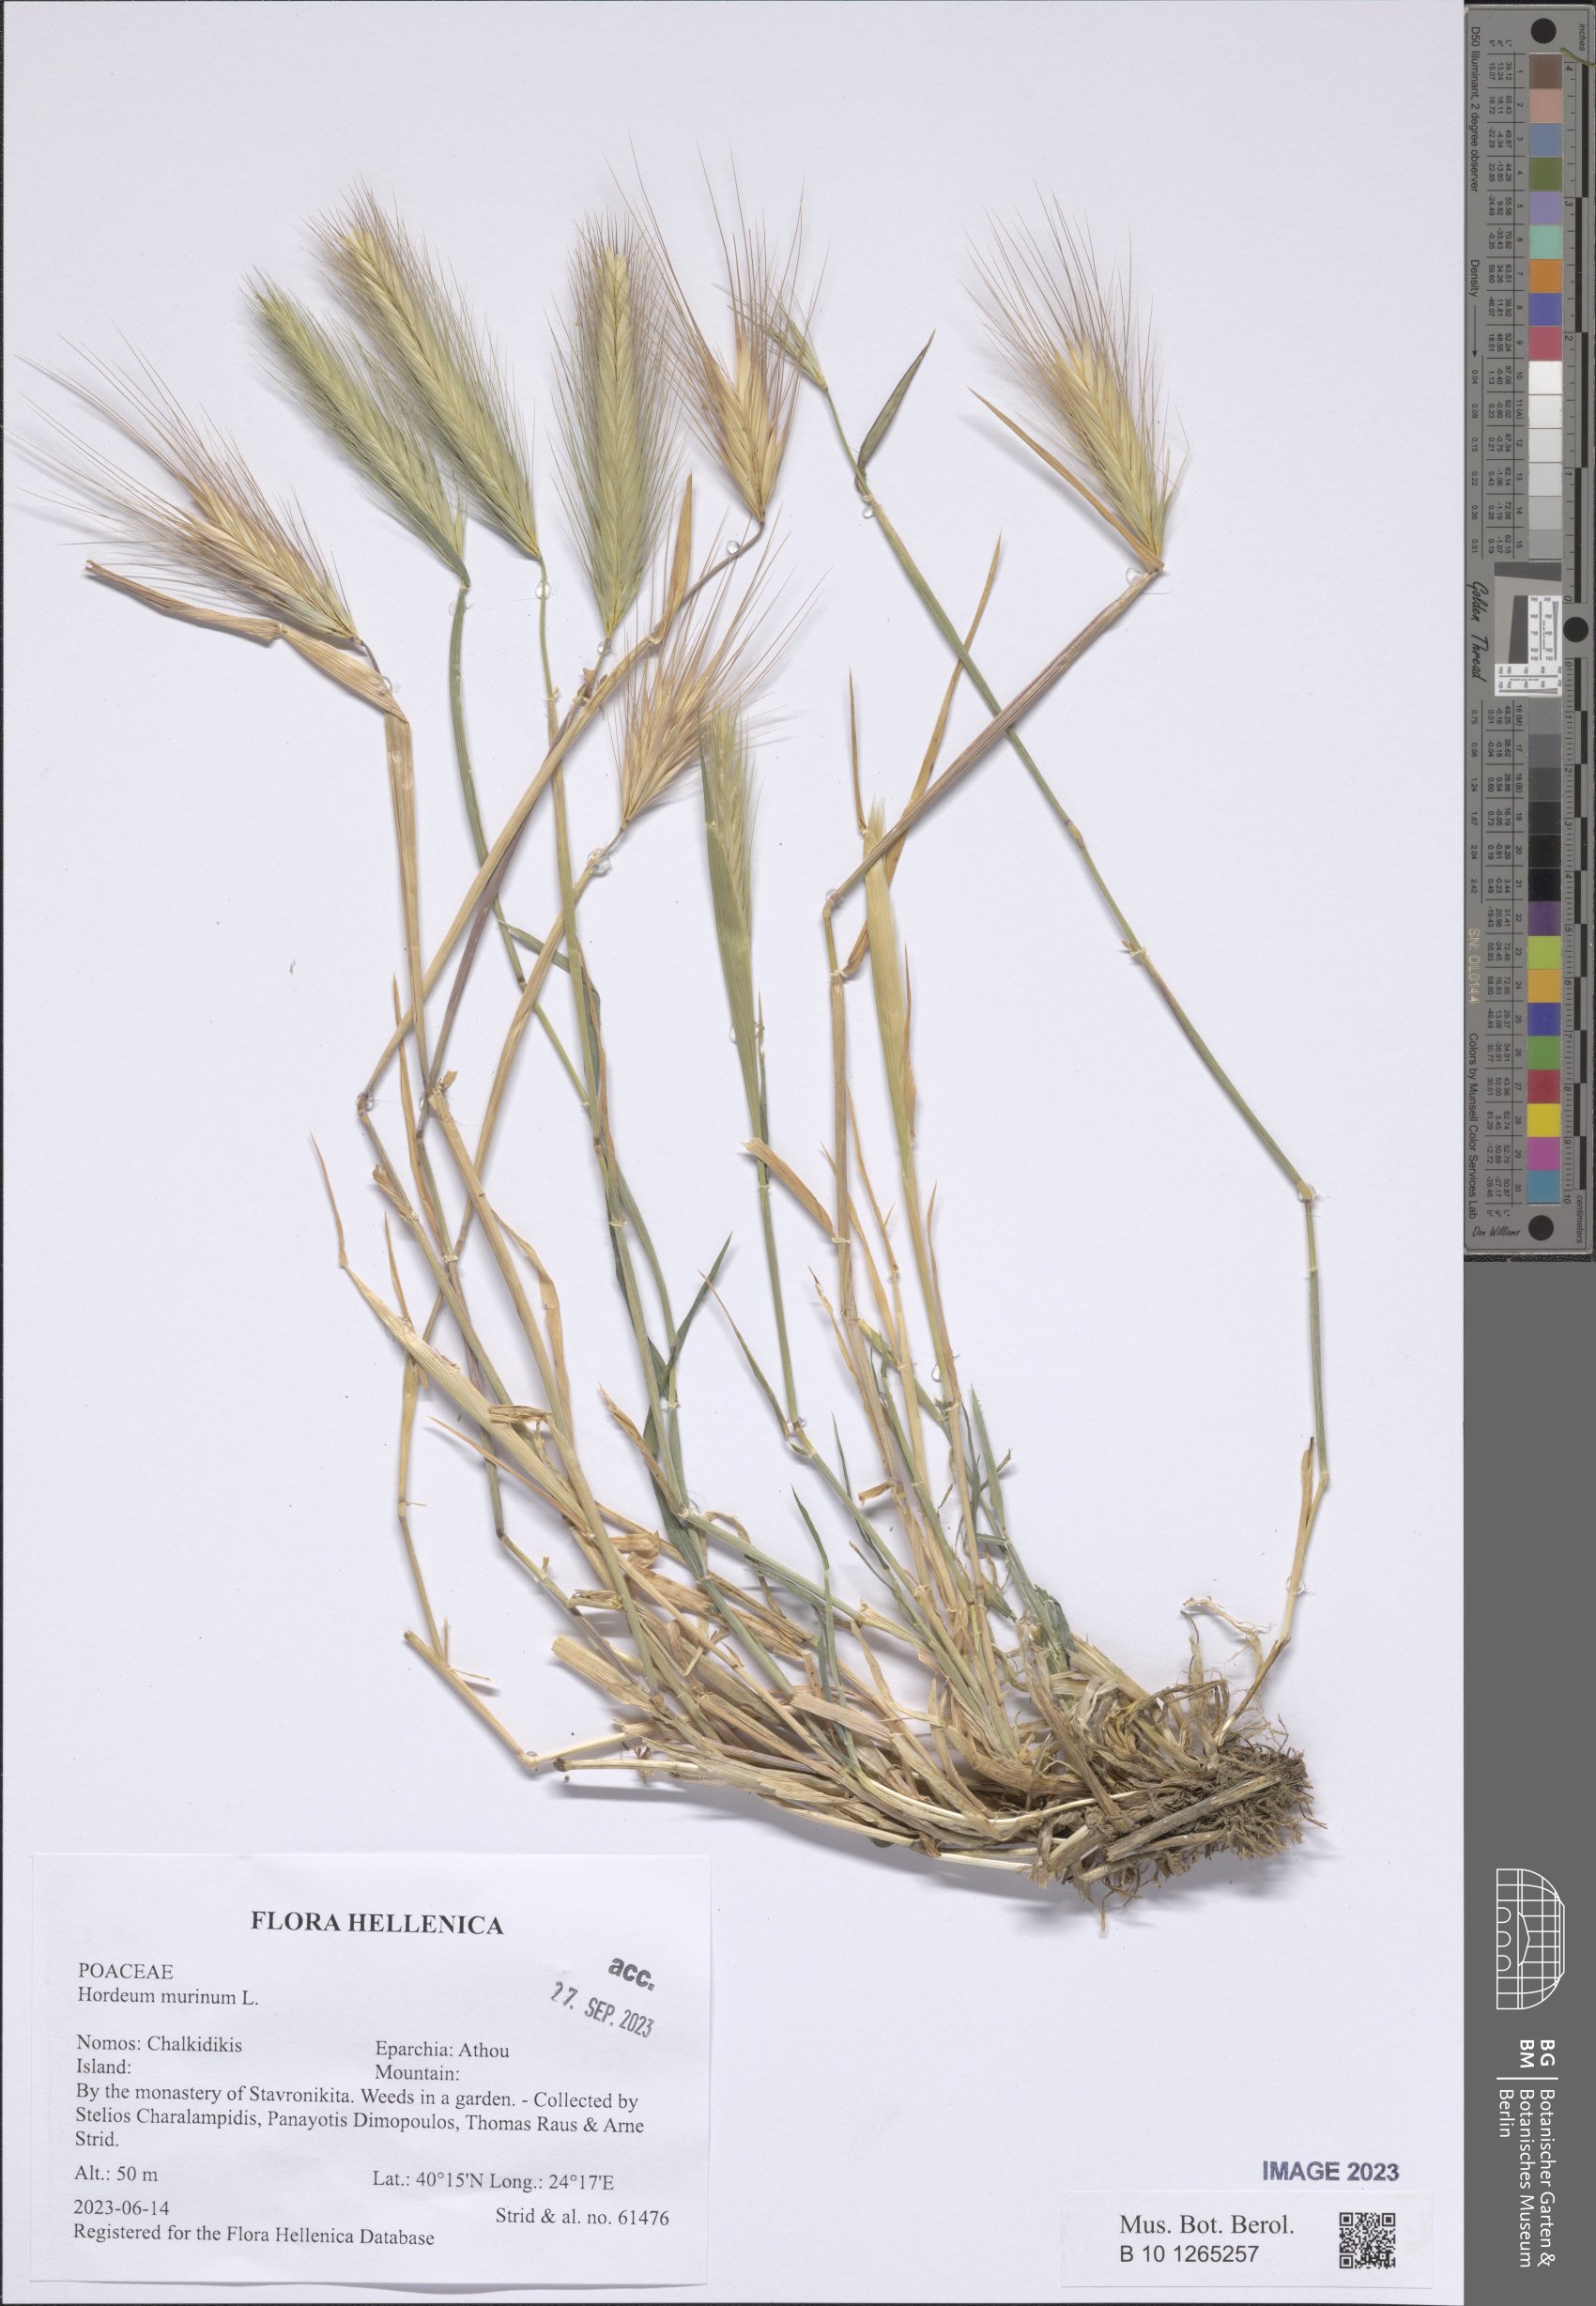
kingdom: Plantae
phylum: Tracheophyta
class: Liliopsida
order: Poales
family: Poaceae
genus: Hordeum
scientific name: Hordeum murinum
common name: Wall barley
